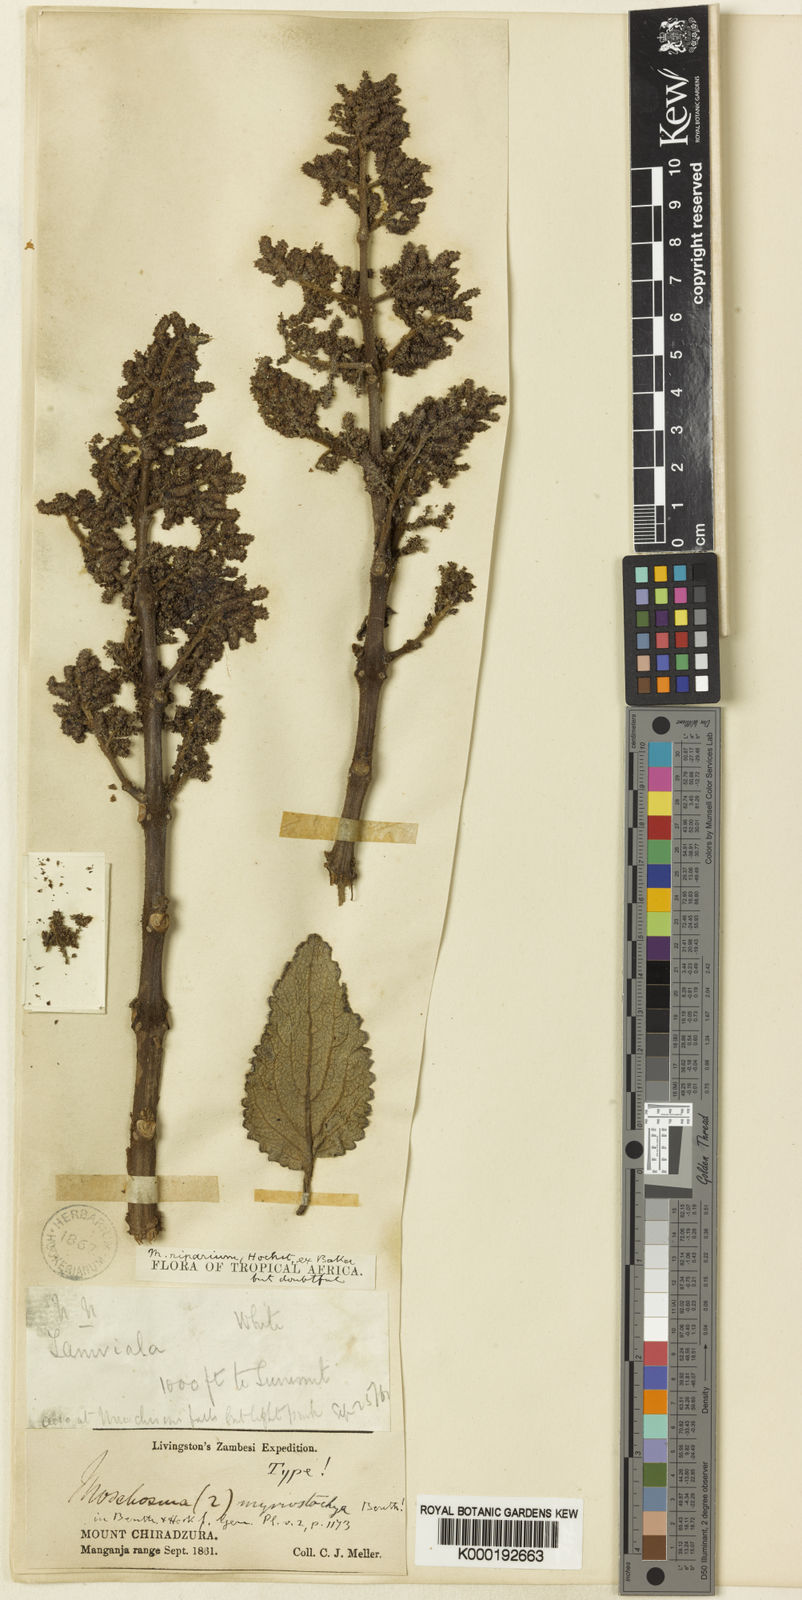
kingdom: Plantae
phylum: Tracheophyta
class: Magnoliopsida
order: Lamiales
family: Lamiaceae
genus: Tetradenia
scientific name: Tetradenia discolor
